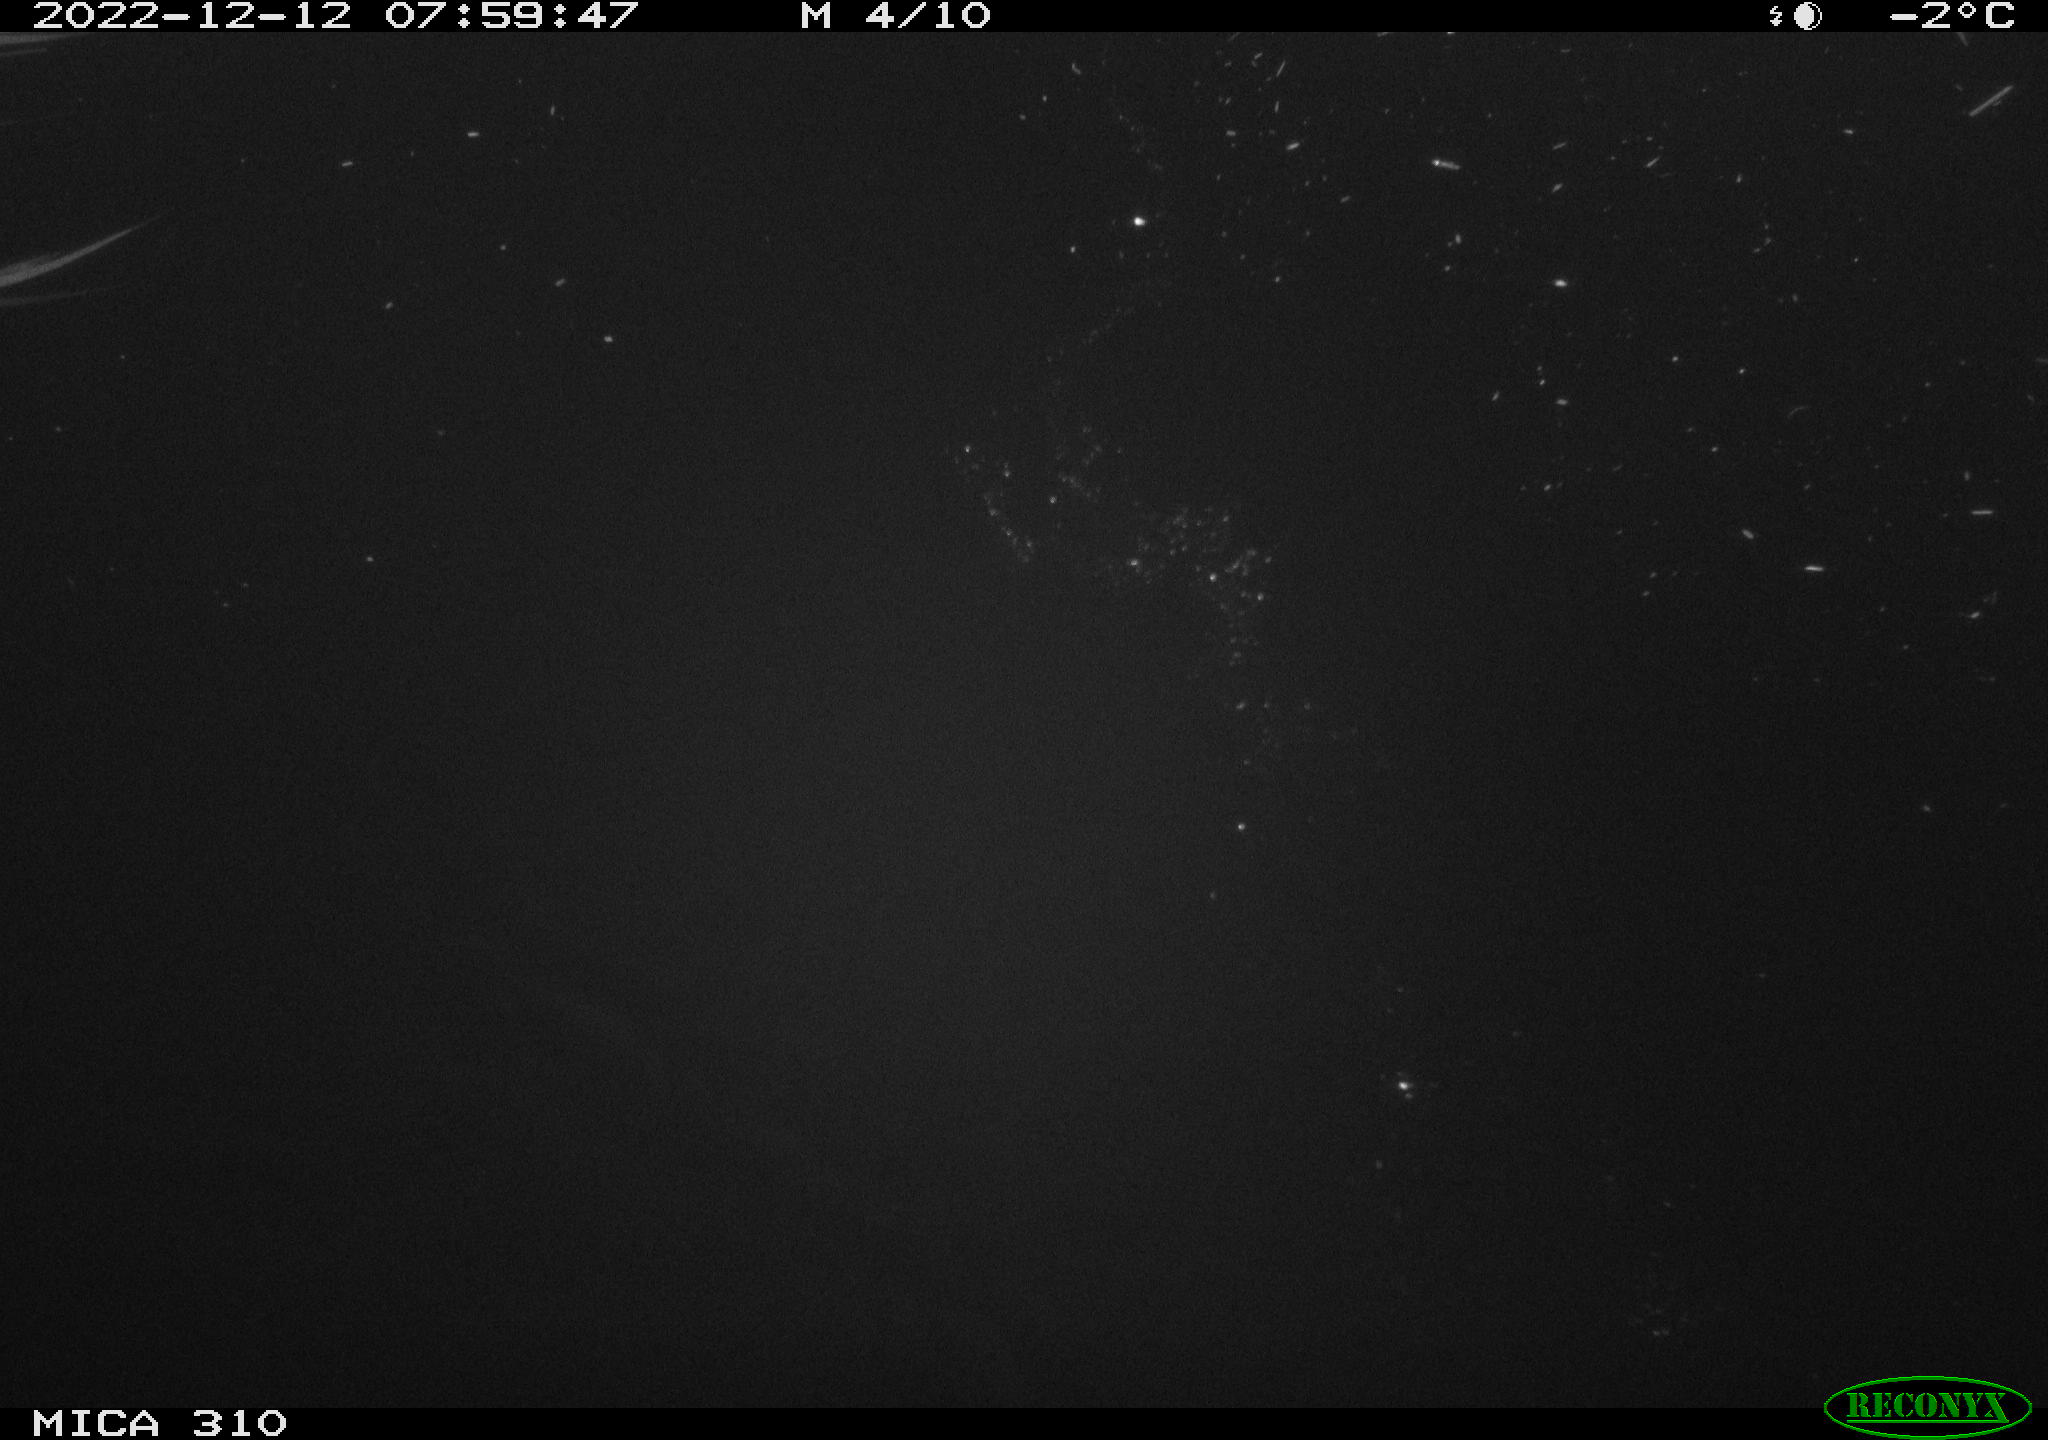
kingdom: Animalia
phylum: Chordata
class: Aves
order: Anseriformes
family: Anatidae
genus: Anas
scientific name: Anas
